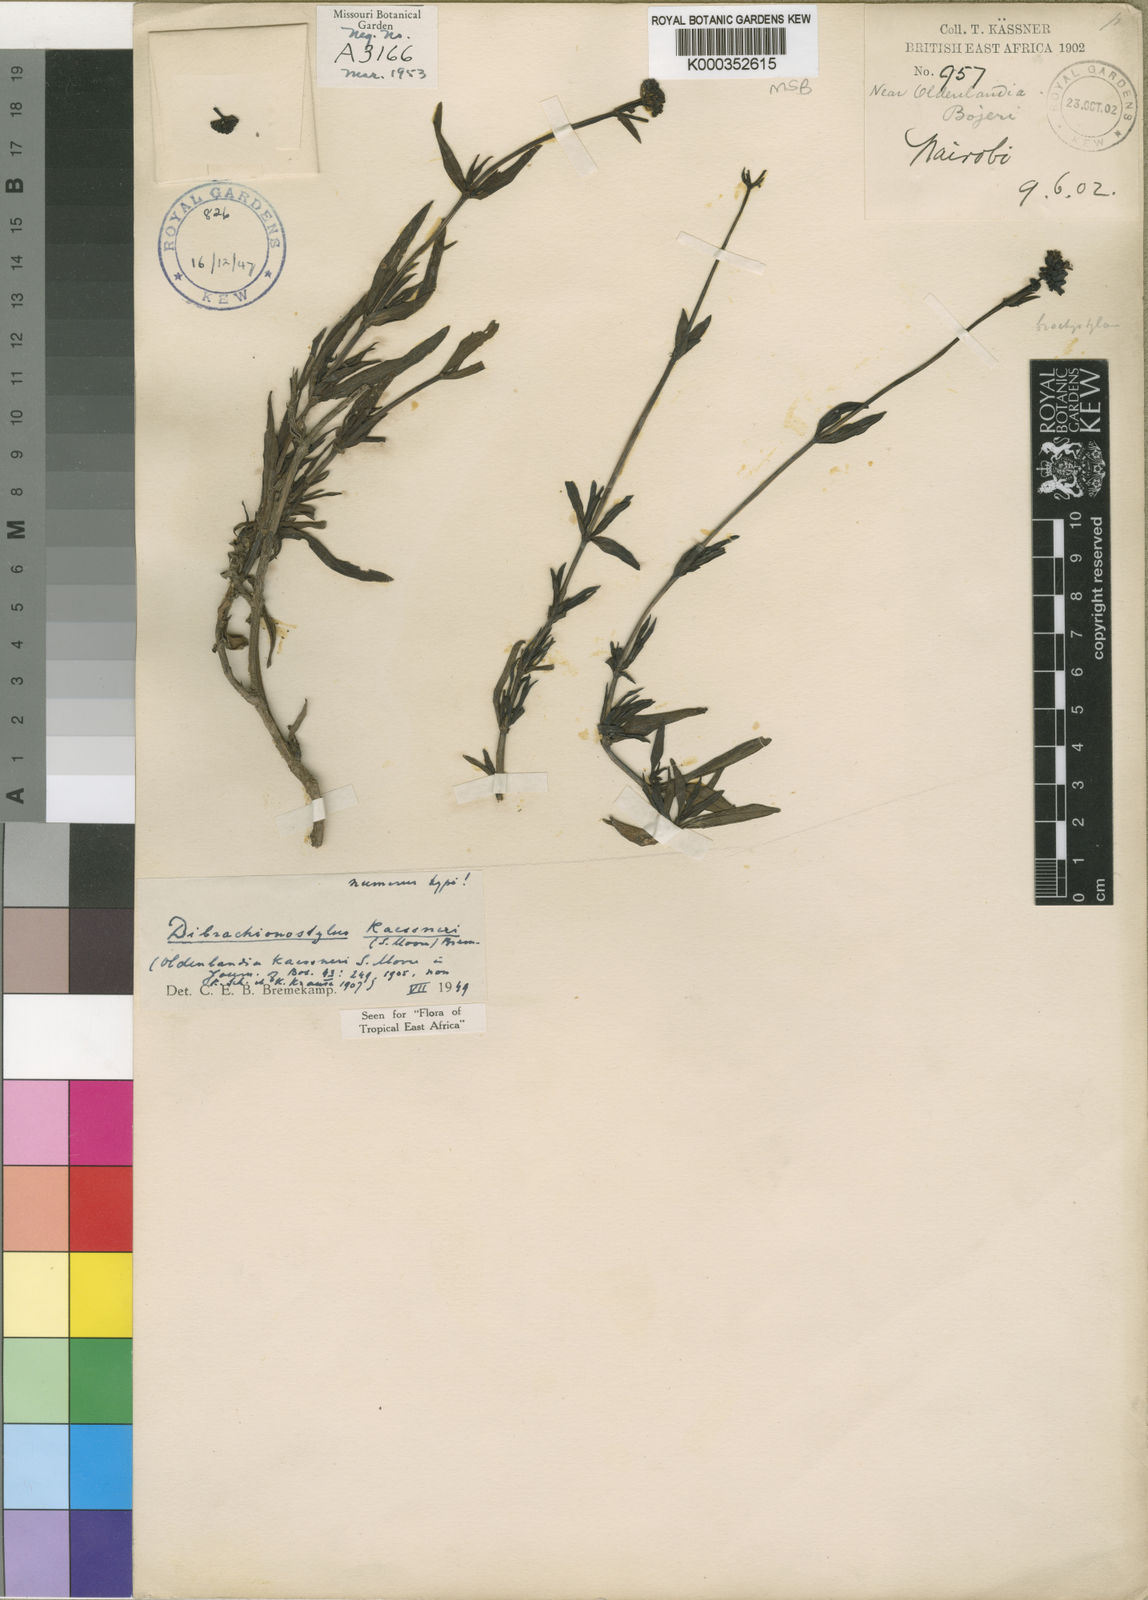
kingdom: Plantae
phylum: Tracheophyta
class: Magnoliopsida
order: Gentianales
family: Rubiaceae
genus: Dibrachionostylus
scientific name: Dibrachionostylus kaessneri
